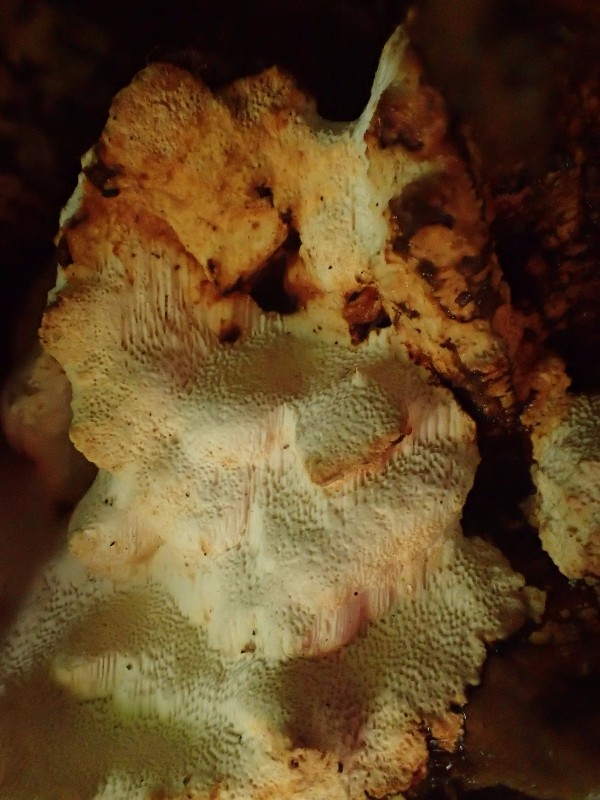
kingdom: Fungi
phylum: Basidiomycota
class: Agaricomycetes
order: Polyporales
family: Fomitopsidaceae
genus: Neoantrodia
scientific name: Neoantrodia serialis
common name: række-sejporesvamp
